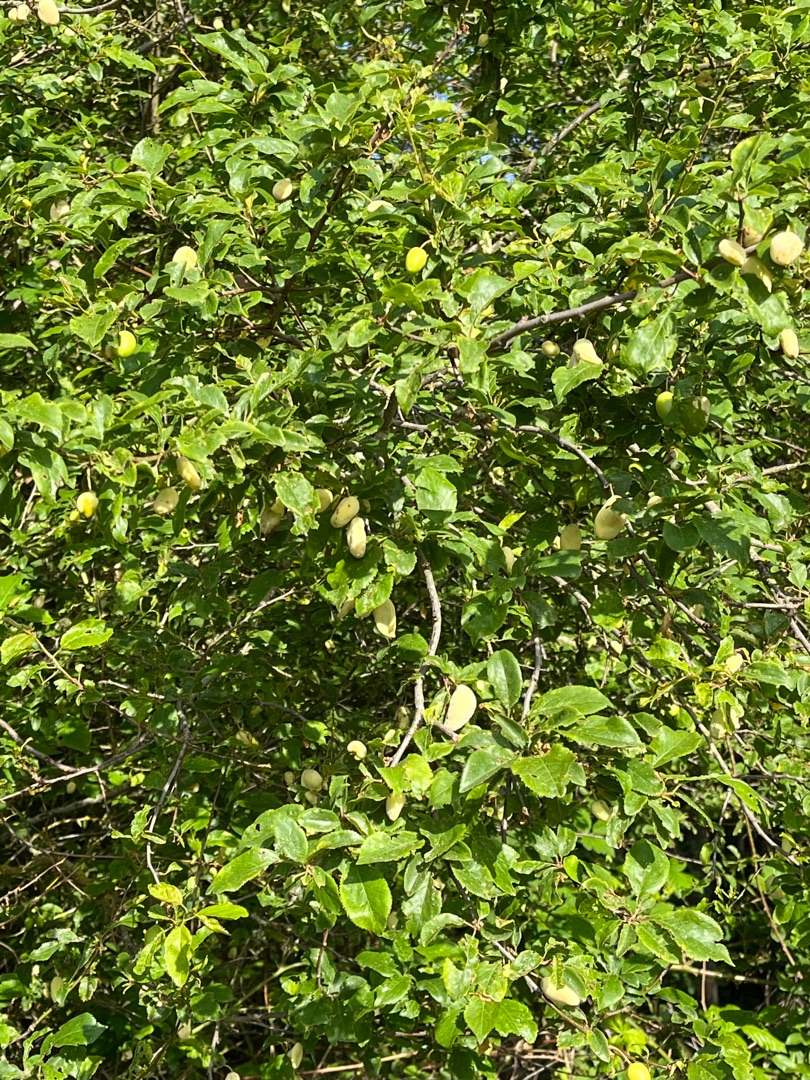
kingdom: Fungi
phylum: Ascomycota
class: Taphrinomycetes
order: Taphrinales
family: Taphrinaceae
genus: Taphrina
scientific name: Taphrina pruni
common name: Blommepung
